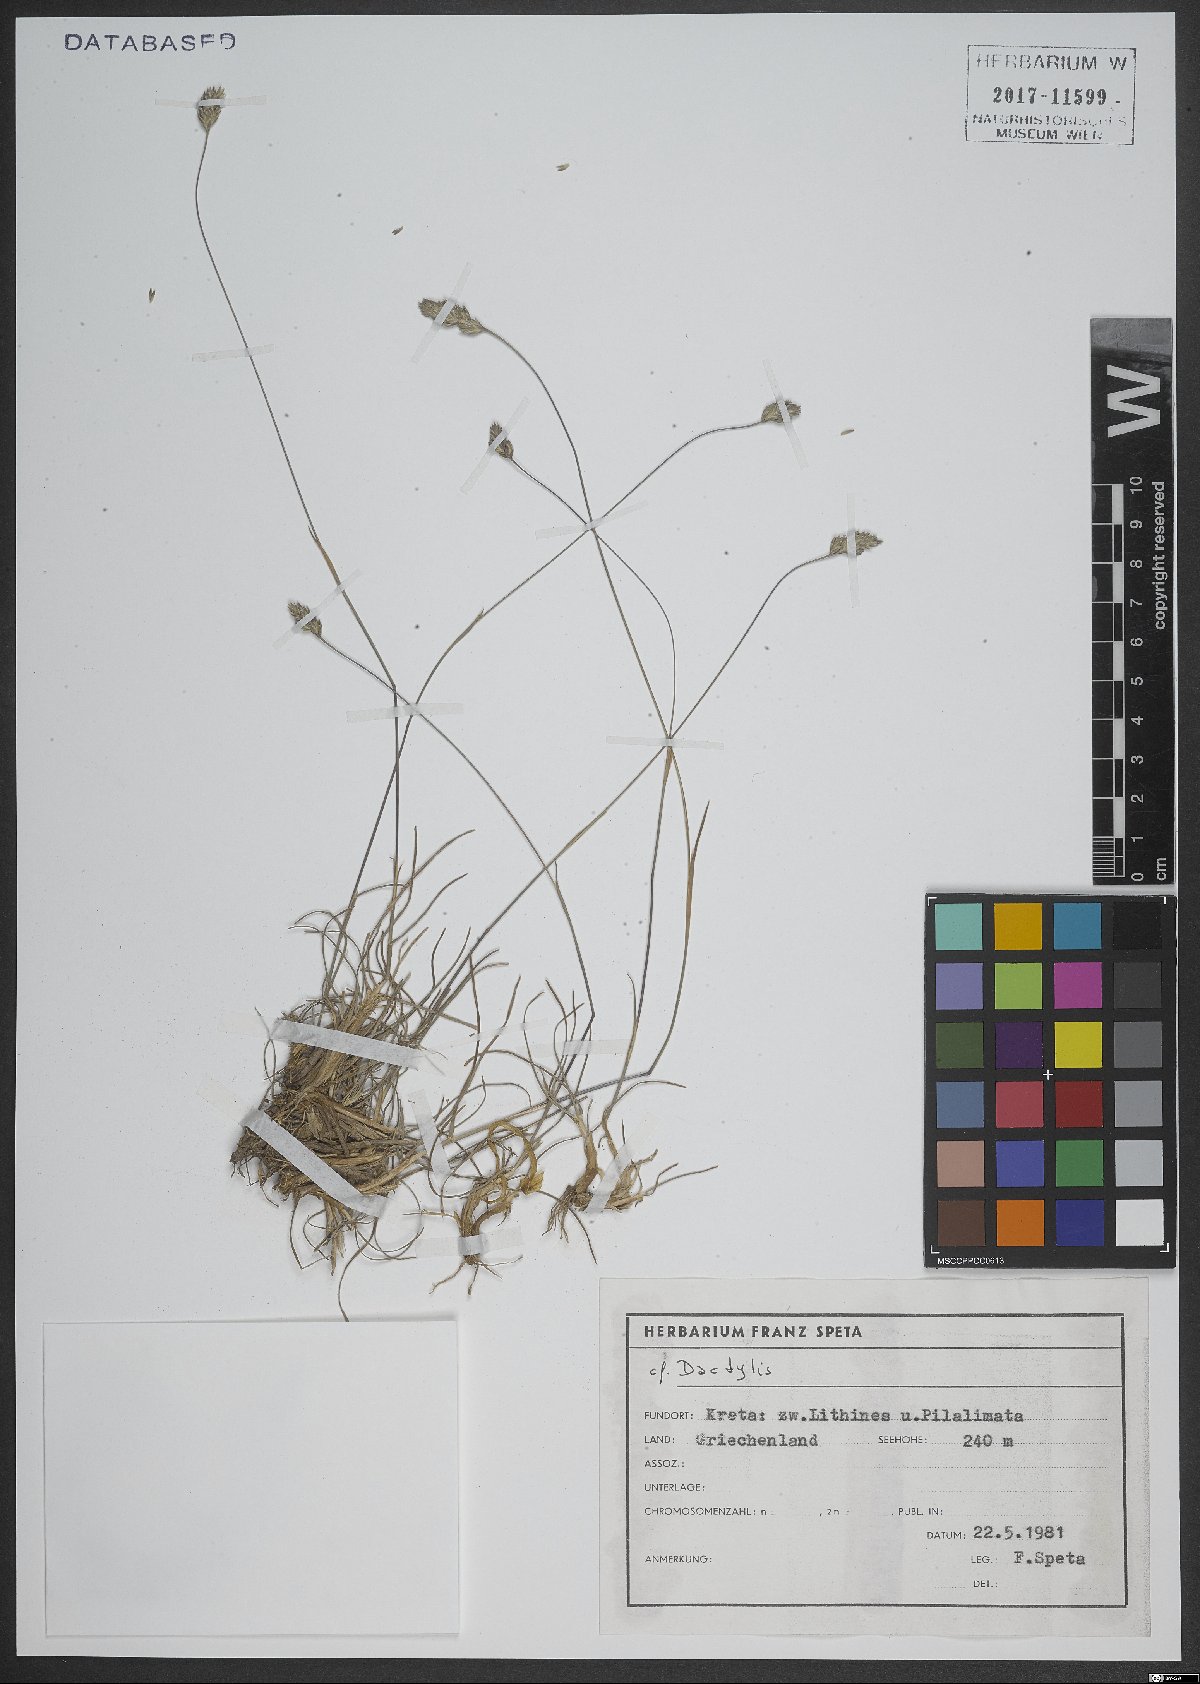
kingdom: Plantae
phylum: Tracheophyta
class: Liliopsida
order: Poales
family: Poaceae
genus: Dactylis
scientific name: Dactylis
